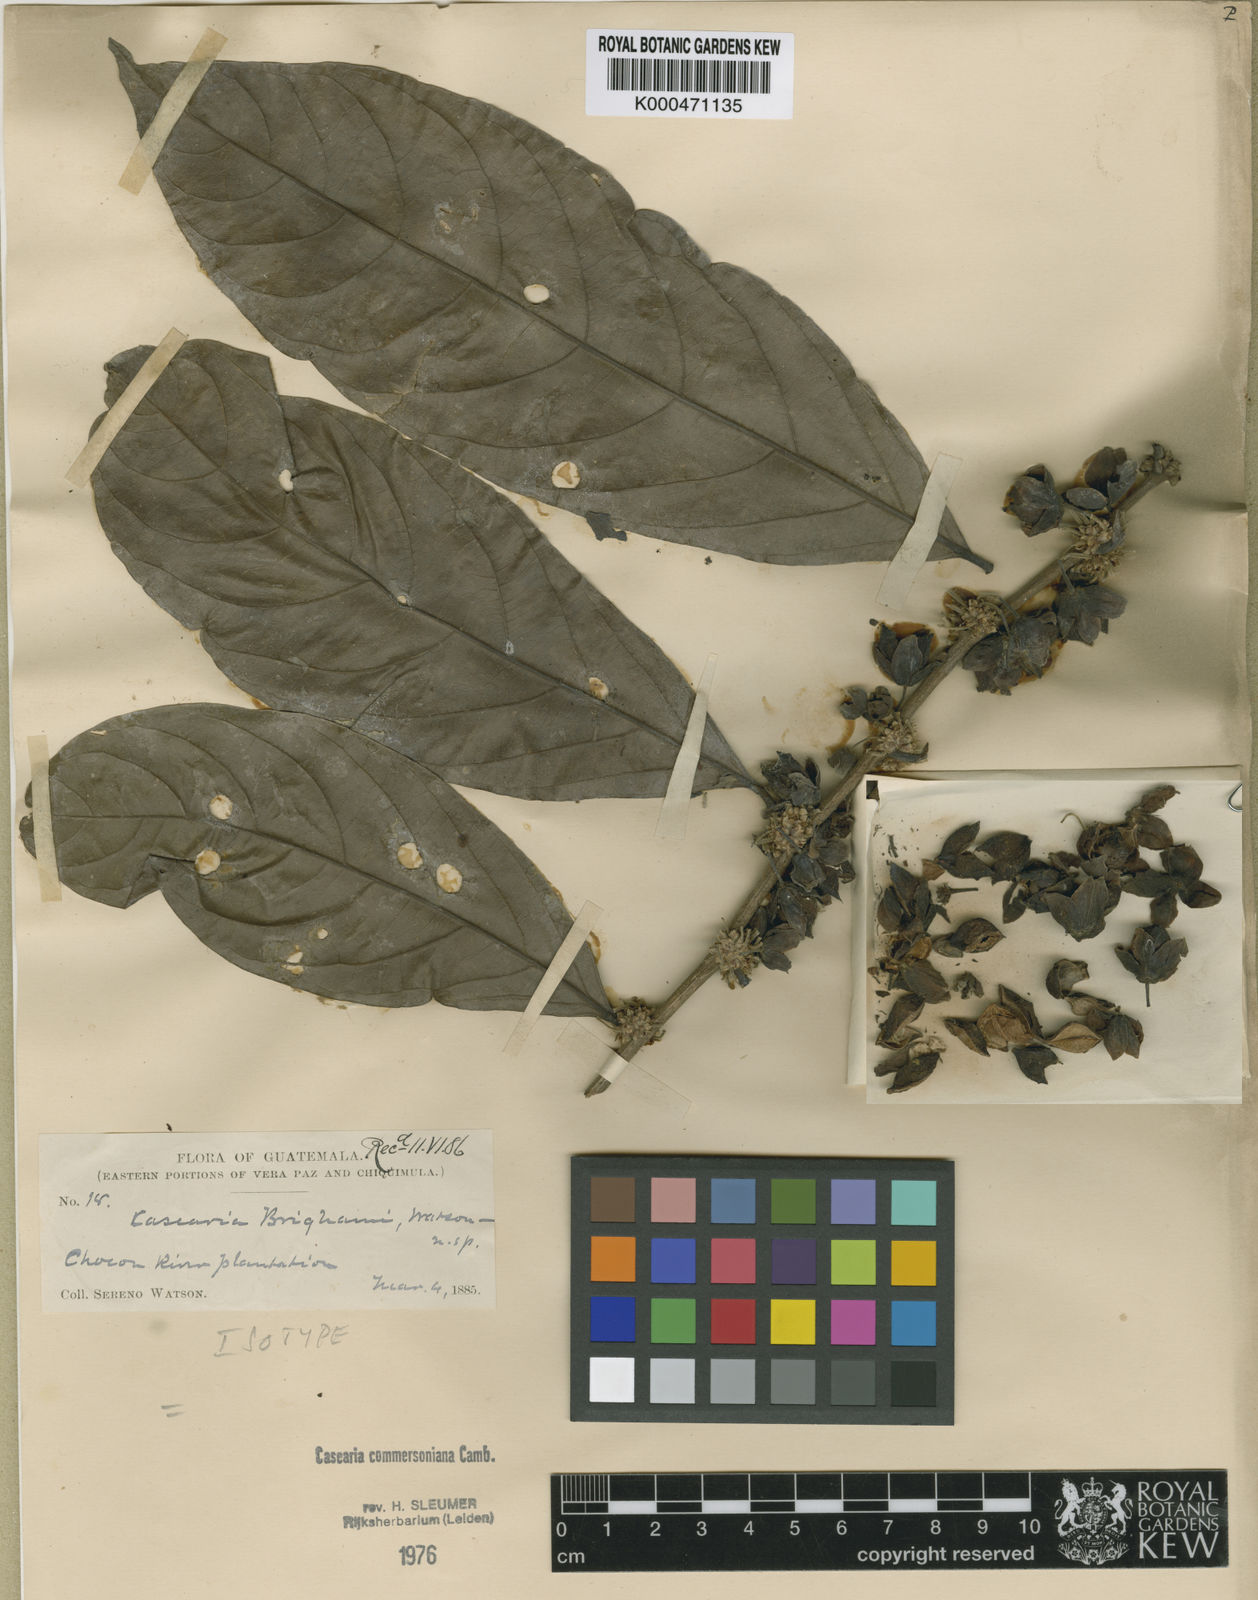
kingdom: Plantae
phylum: Tracheophyta
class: Magnoliopsida
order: Malpighiales
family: Salicaceae
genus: Piparea
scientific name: Piparea dentata
